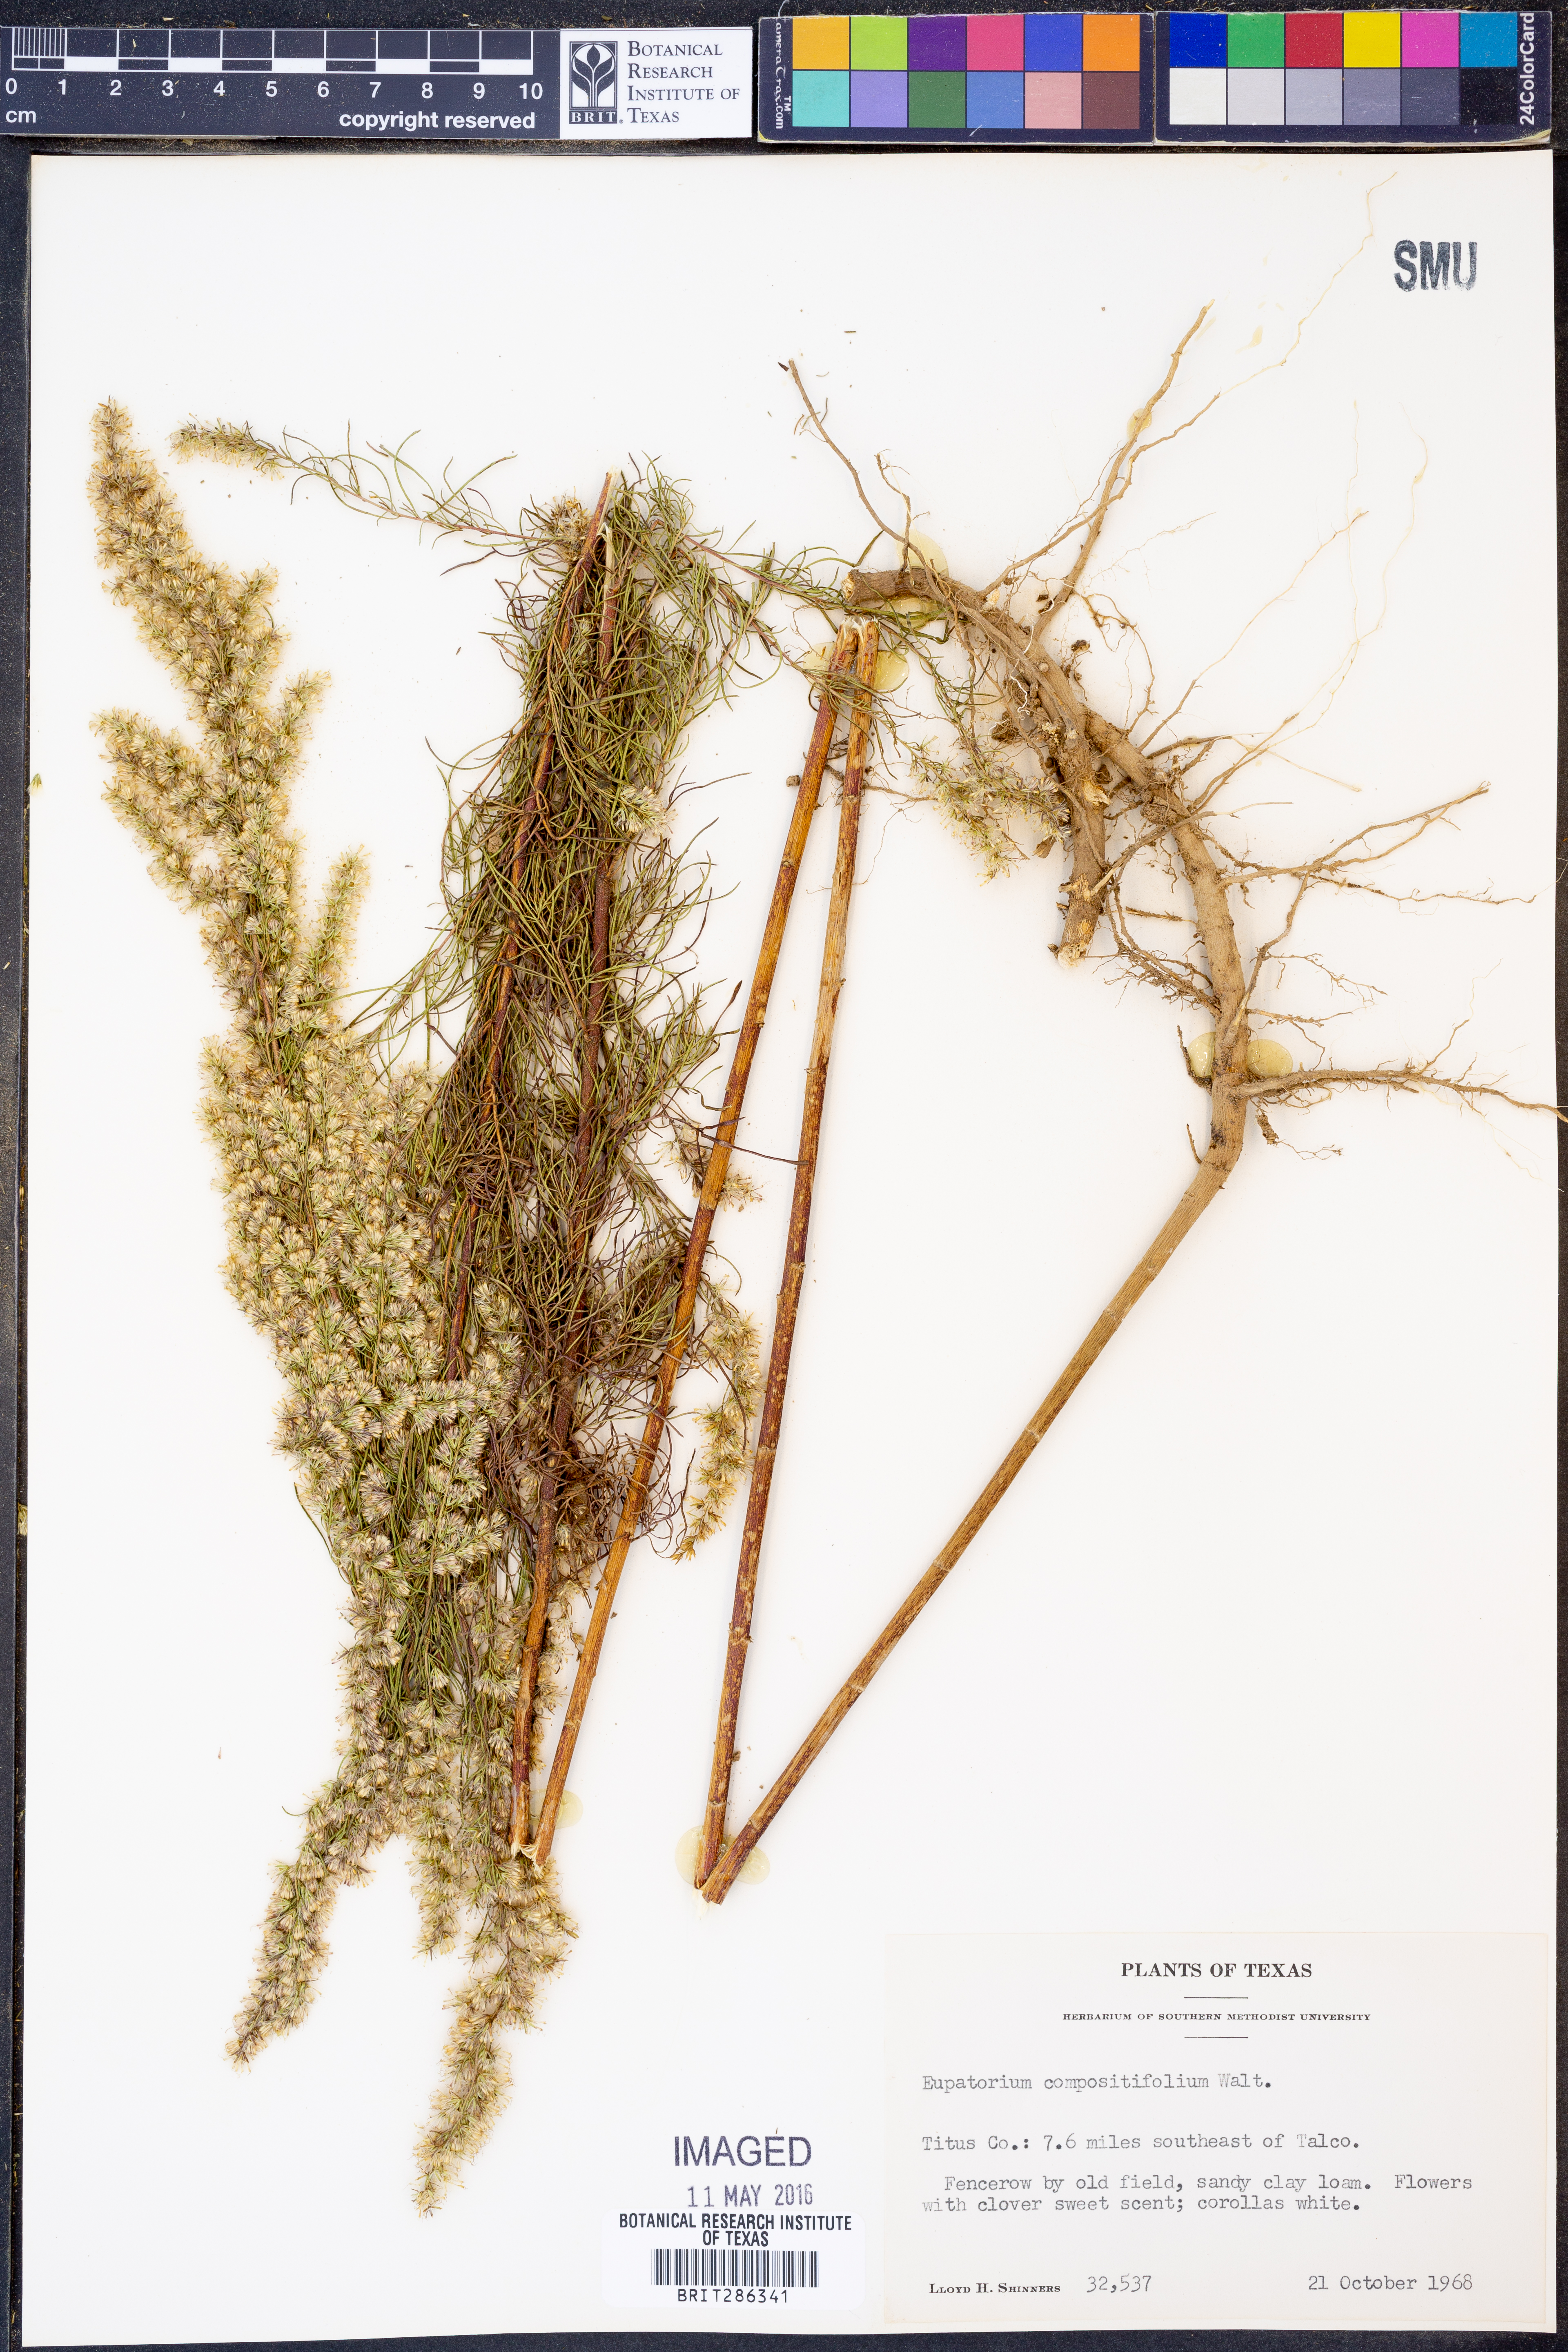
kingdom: Plantae
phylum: Tracheophyta
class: Magnoliopsida
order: Asterales
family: Asteraceae
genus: Eupatorium
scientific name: Eupatorium compositifolium
